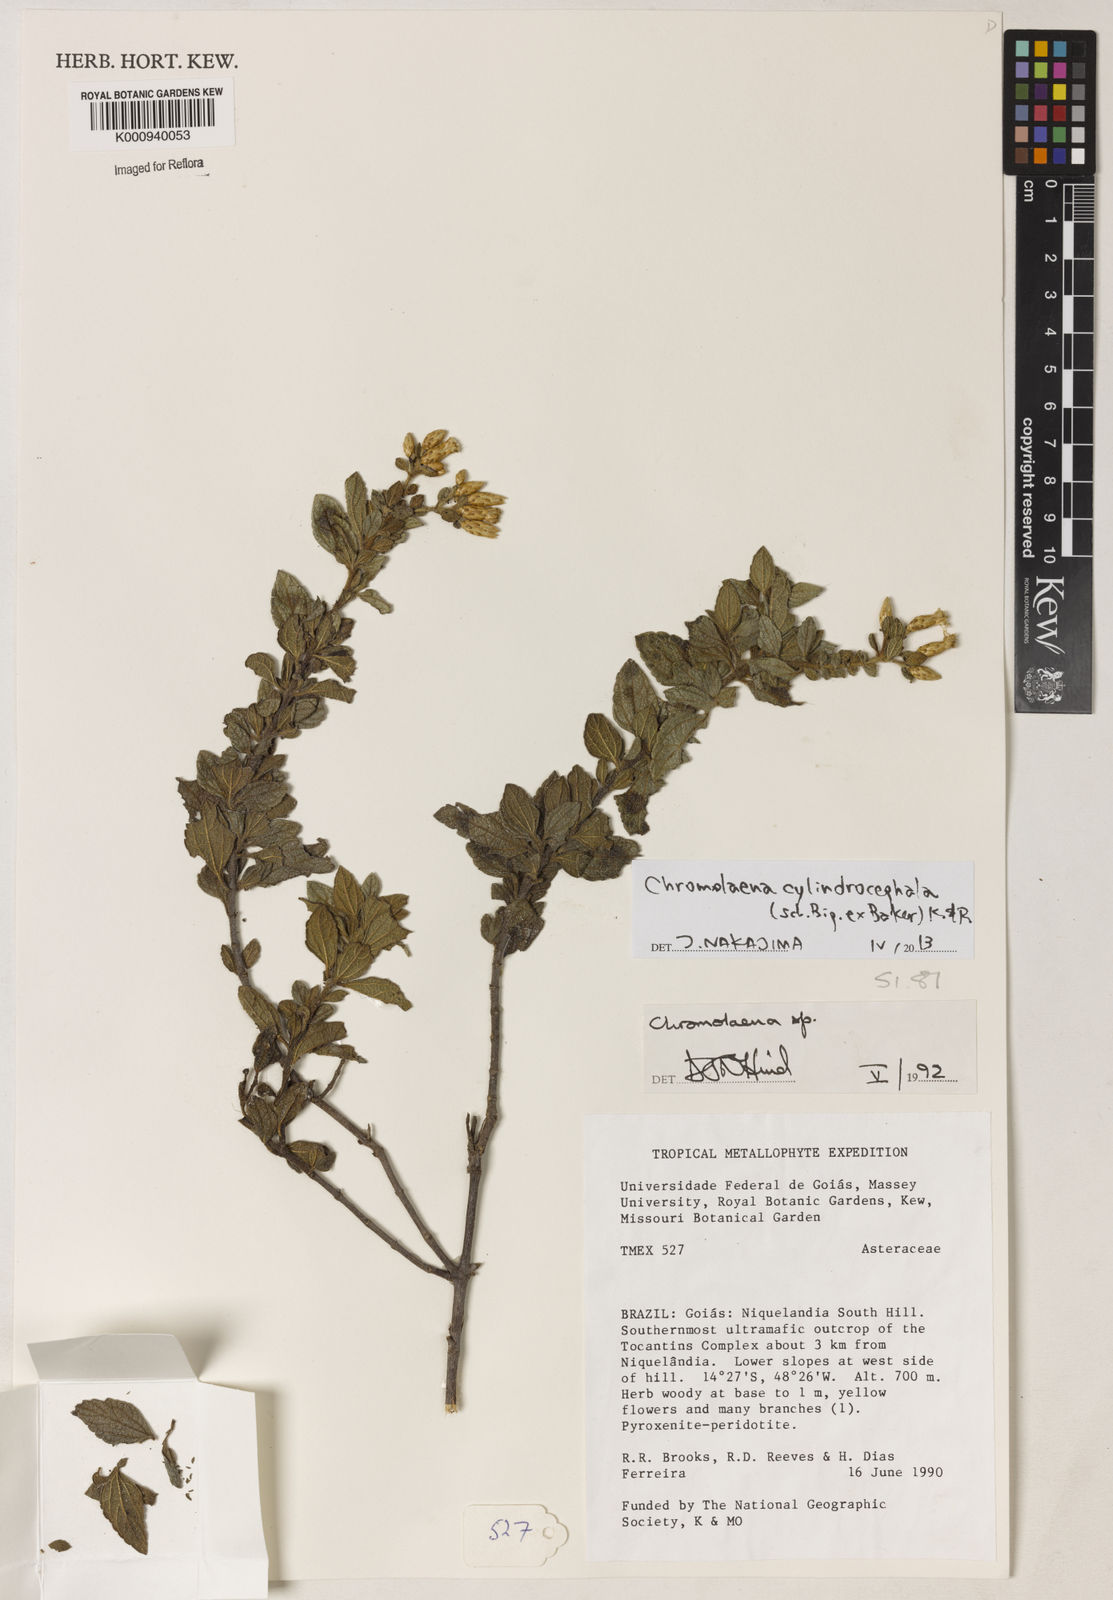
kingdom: Plantae
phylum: Tracheophyta
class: Magnoliopsida
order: Asterales
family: Asteraceae
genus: Chromolaena
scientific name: Chromolaena cylindrocephala
